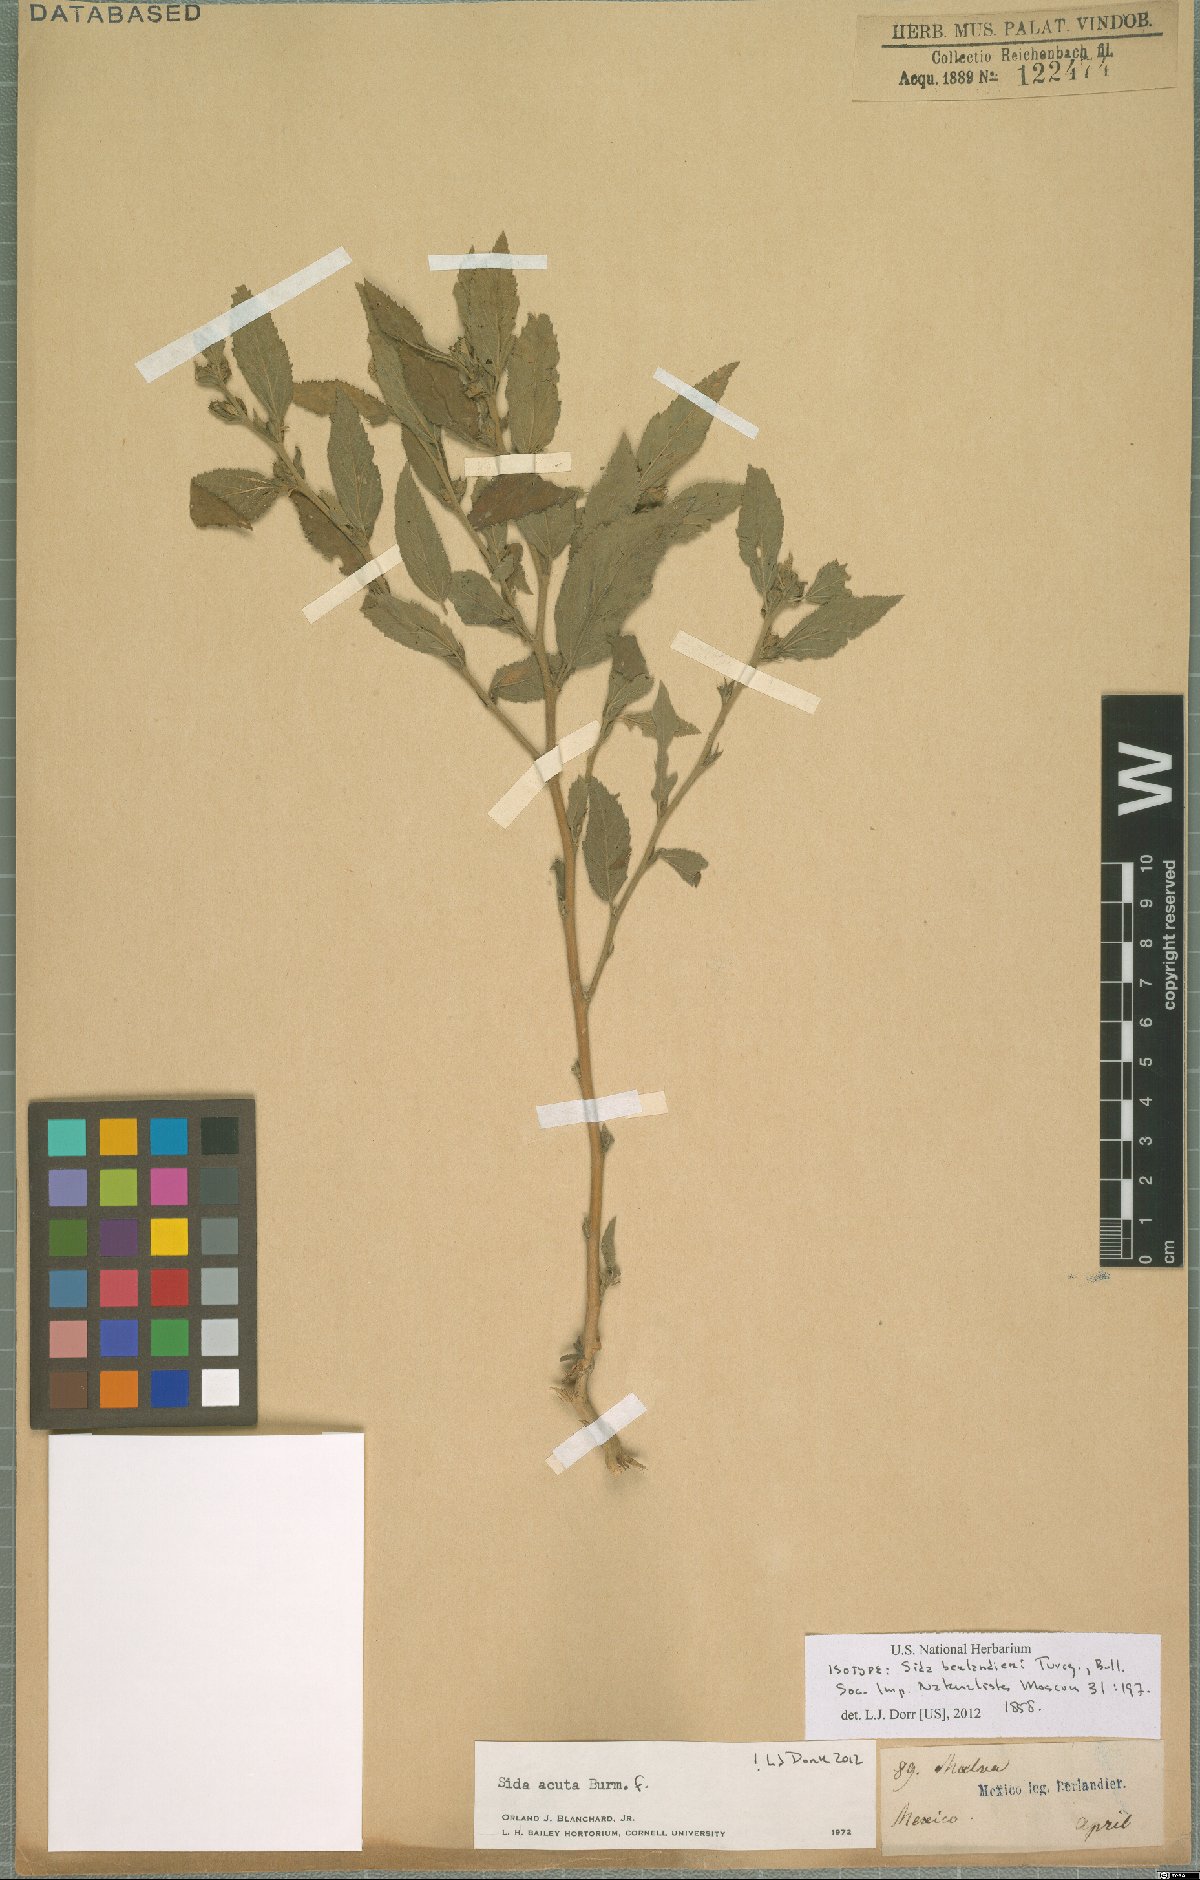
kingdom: Plantae
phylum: Tracheophyta
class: Magnoliopsida
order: Malvales
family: Malvaceae
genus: Sida
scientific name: Sida acuta
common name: Common wireweed
